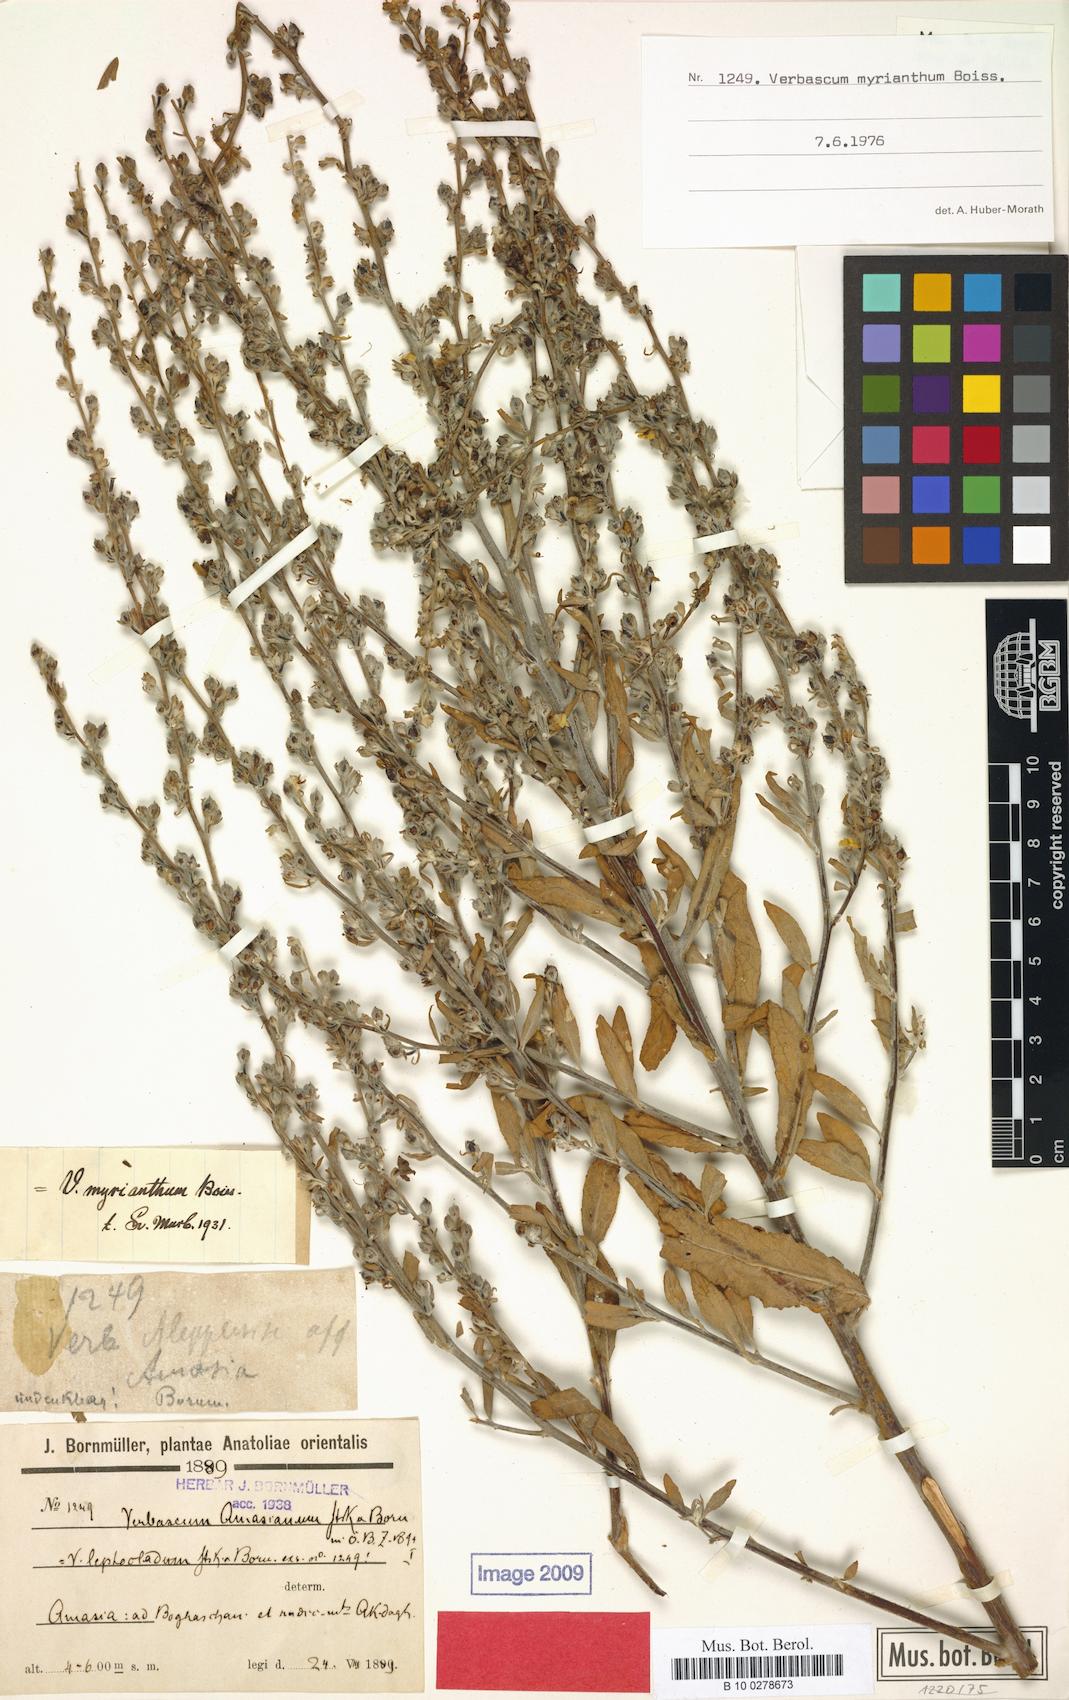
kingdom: Plantae
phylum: Tracheophyta
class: Magnoliopsida
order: Lamiales
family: Scrophulariaceae
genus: Verbascum
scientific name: Verbascum myrianthum
